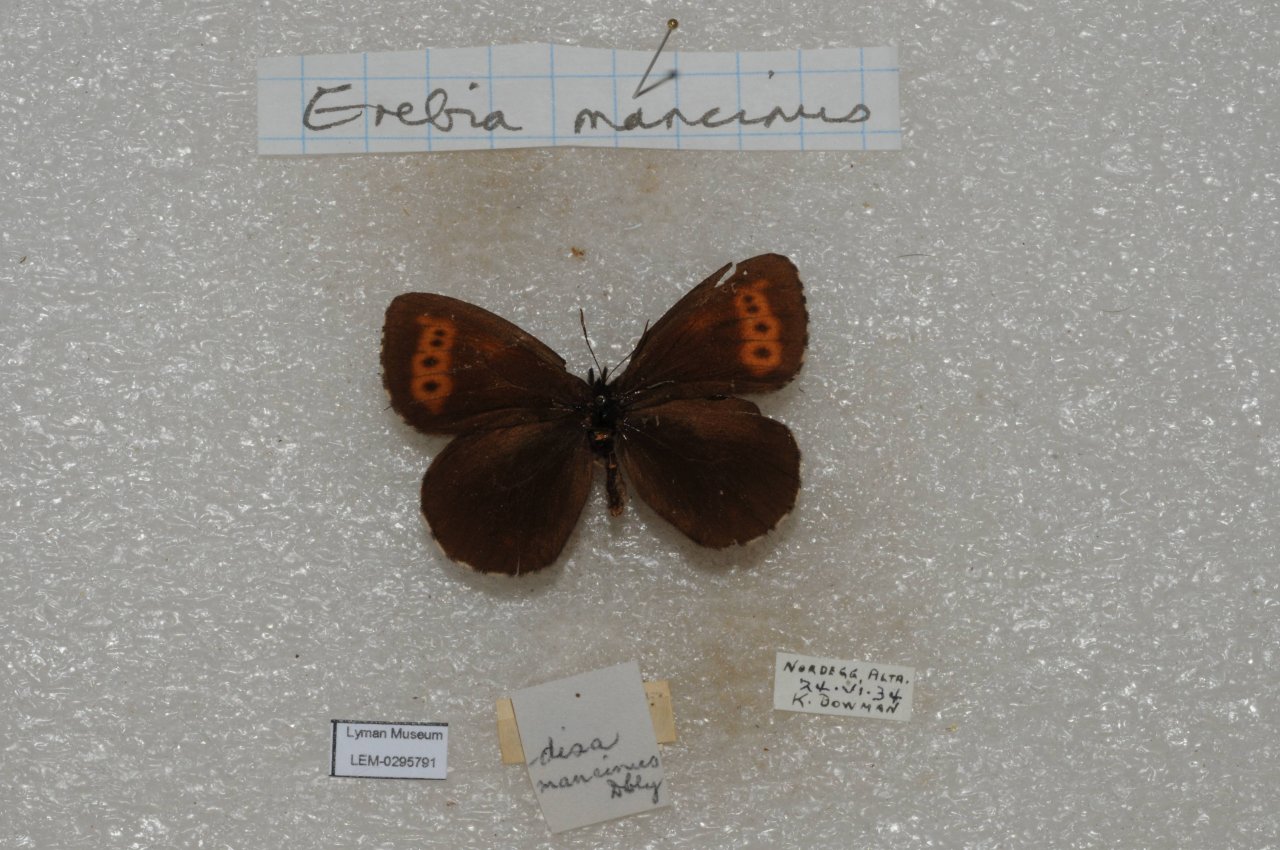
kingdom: Animalia
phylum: Arthropoda
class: Insecta
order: Lepidoptera
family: Nymphalidae
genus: Erebia
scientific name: Erebia disa
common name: Taiga Alpine
